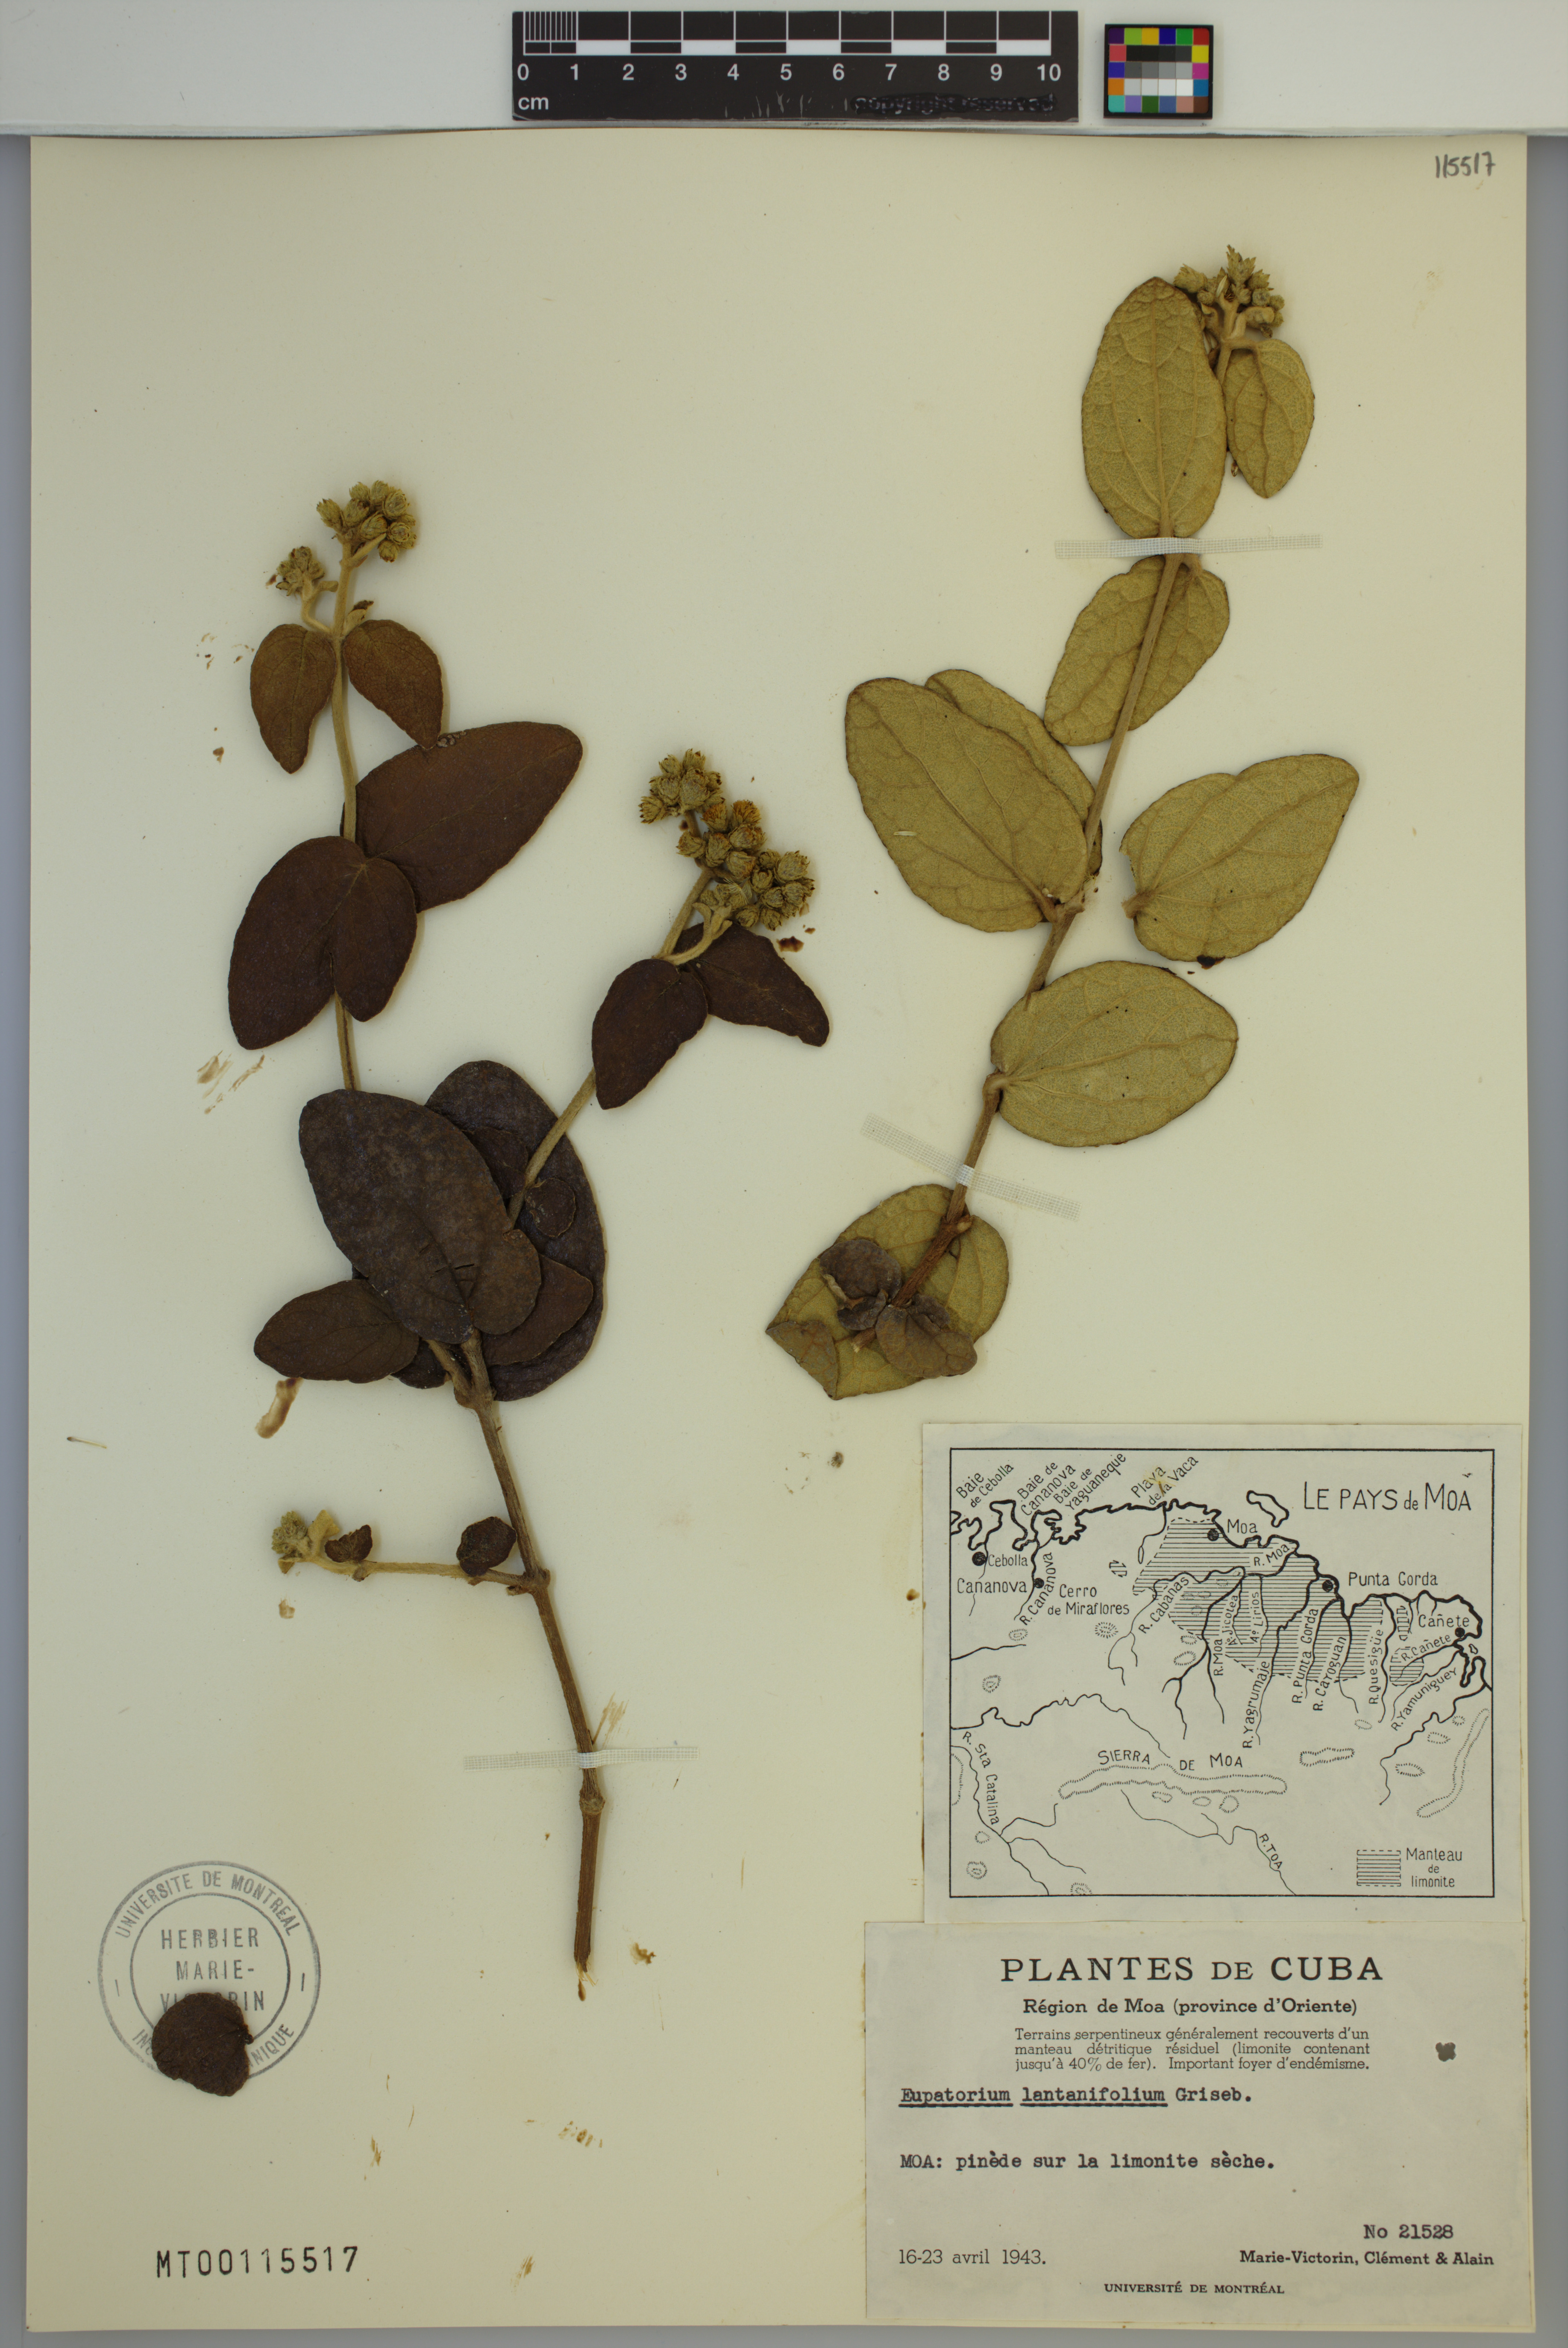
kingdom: Plantae
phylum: Tracheophyta
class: Magnoliopsida
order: Asterales
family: Asteraceae
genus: Grisebachianthus
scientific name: Grisebachianthus lantanifolius
